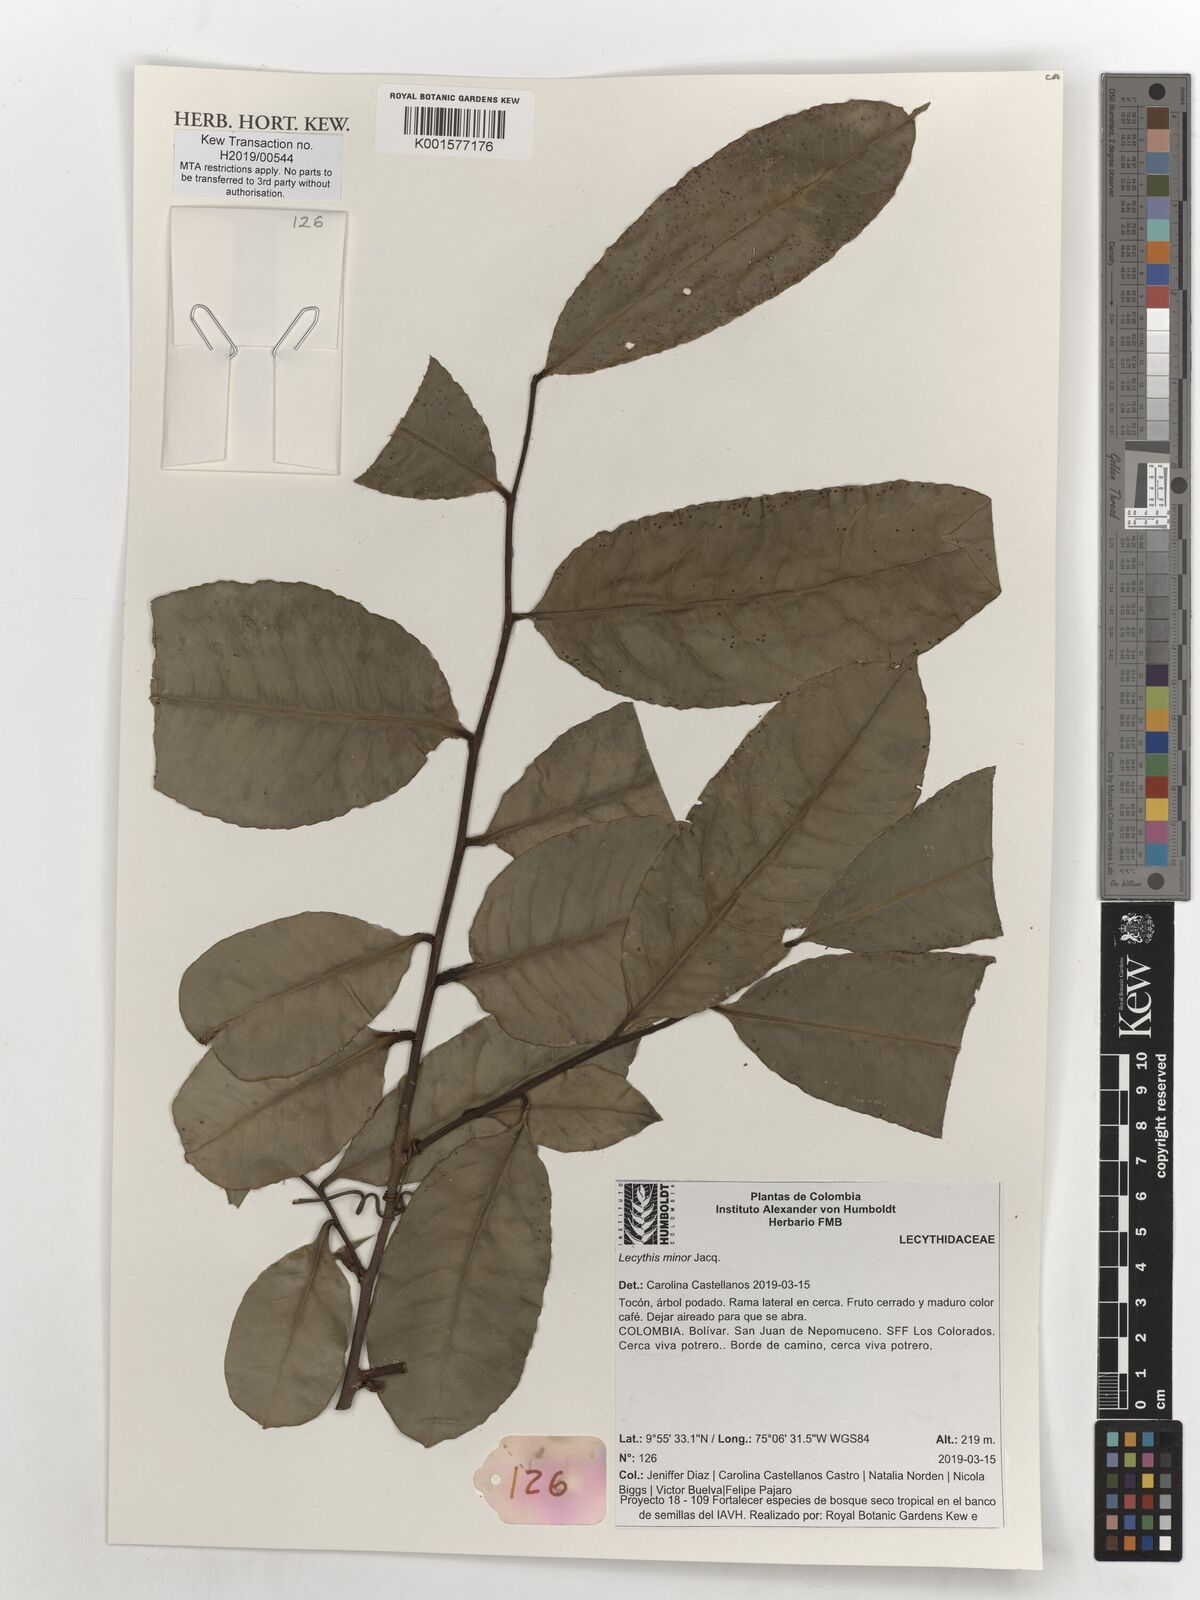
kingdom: Plantae
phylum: Tracheophyta
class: Magnoliopsida
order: Ericales
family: Lecythidaceae
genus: Lecythis
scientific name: Lecythis minor
